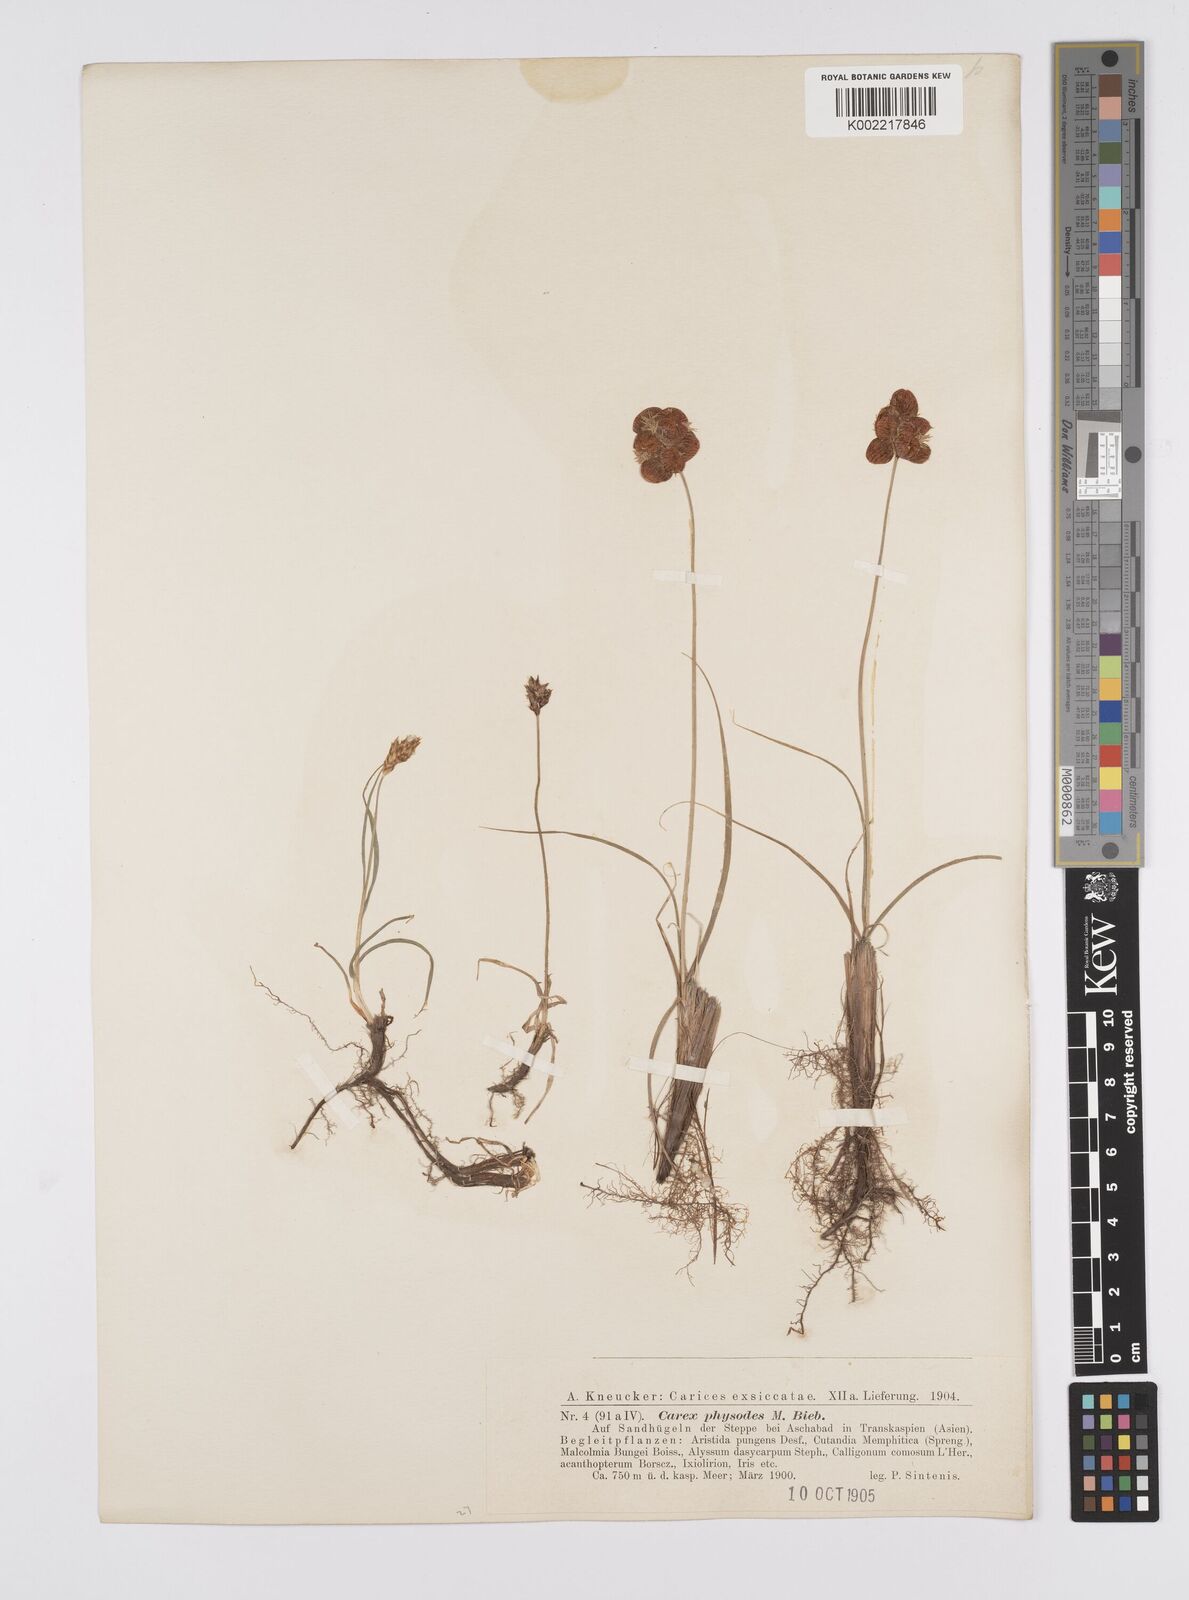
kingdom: Plantae
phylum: Tracheophyta
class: Liliopsida
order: Poales
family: Cyperaceae
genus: Carex
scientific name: Carex physodes
